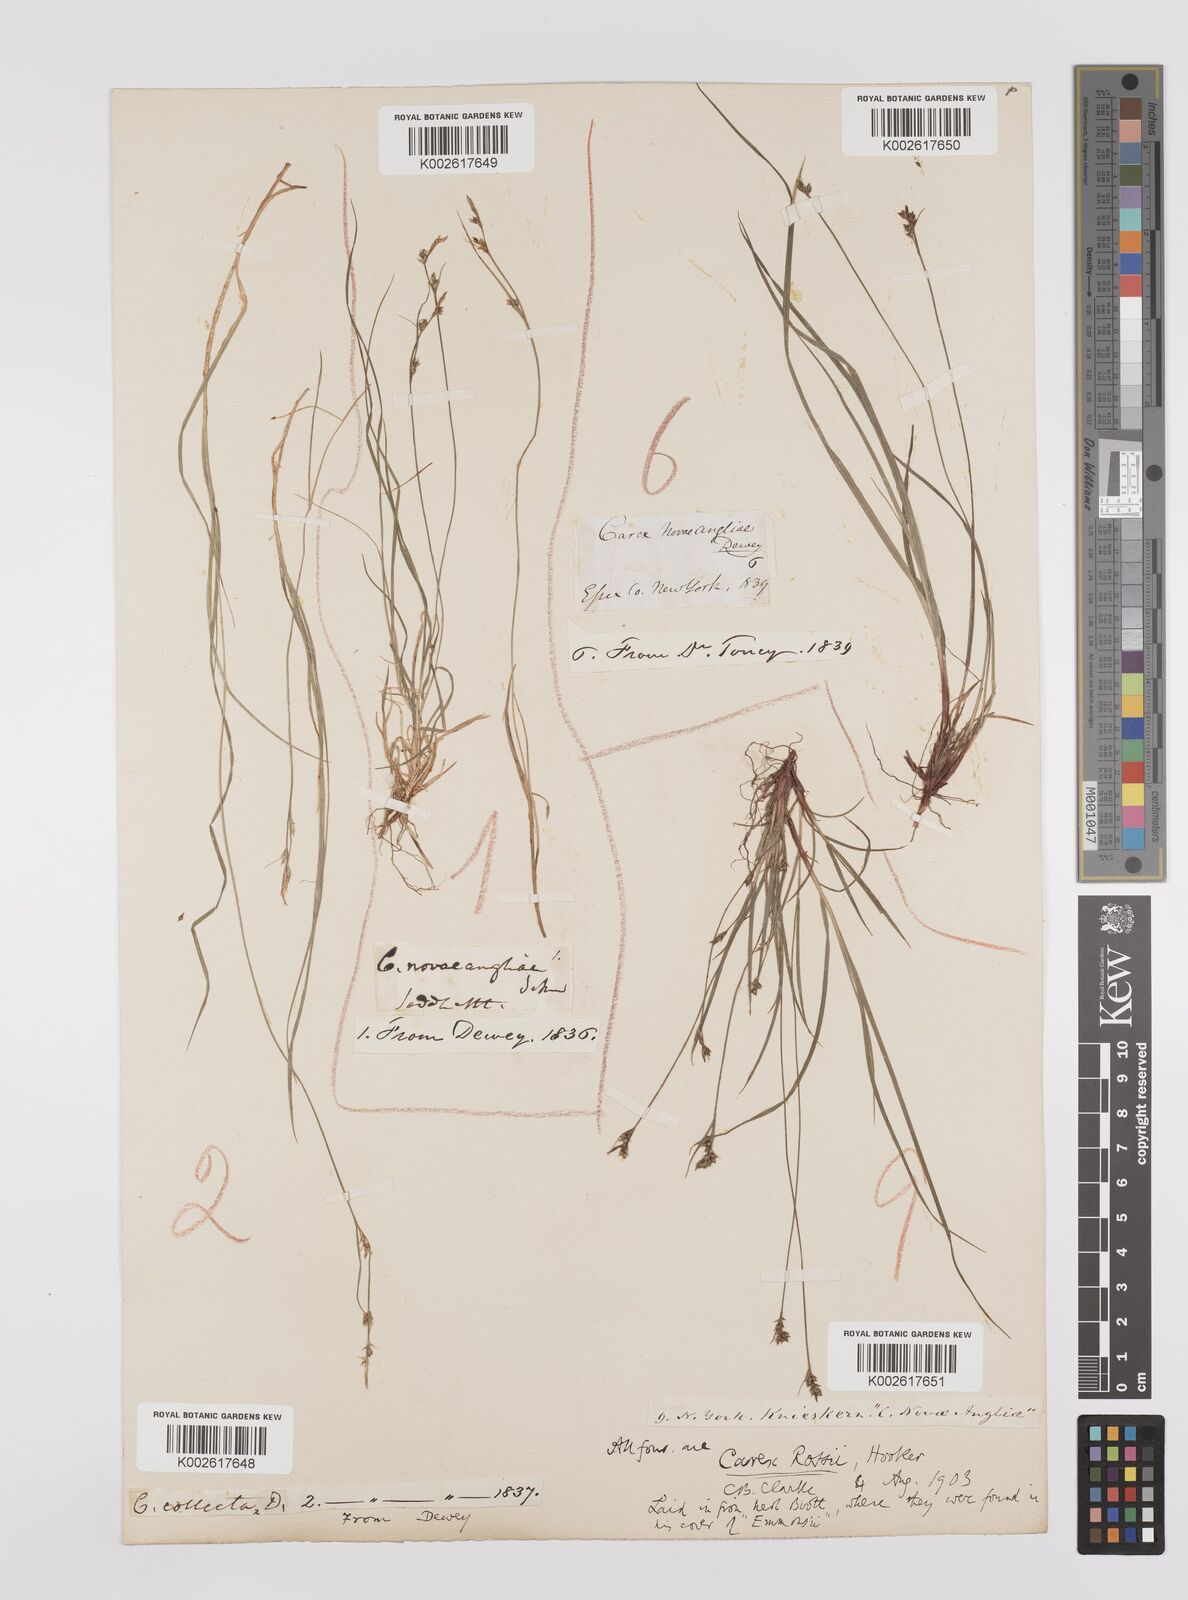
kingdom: Plantae
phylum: Tracheophyta
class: Liliopsida
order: Poales
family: Cyperaceae
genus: Carex
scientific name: Carex rossii
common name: Ross' sedge
